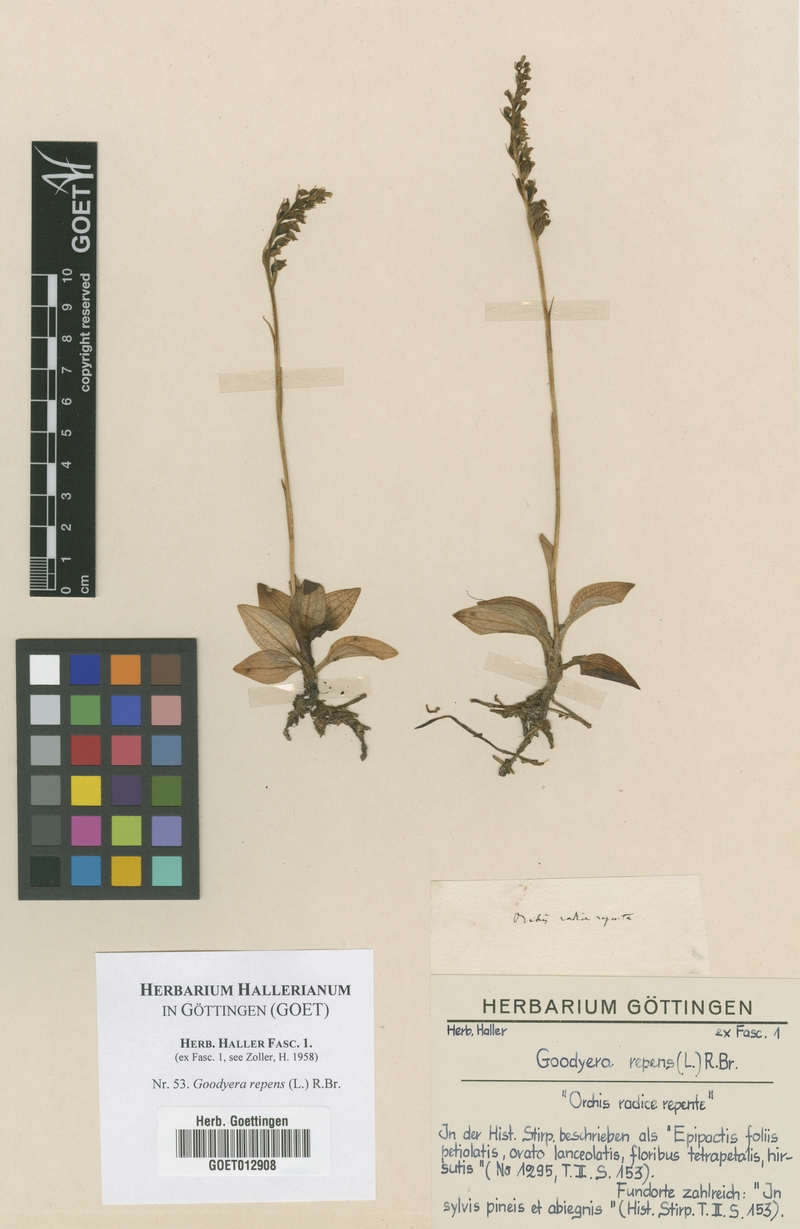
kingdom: Plantae
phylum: Tracheophyta
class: Liliopsida
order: Asparagales
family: Orchidaceae
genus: Goodyera
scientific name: Goodyera repens
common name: Creeping lady's-tresses
